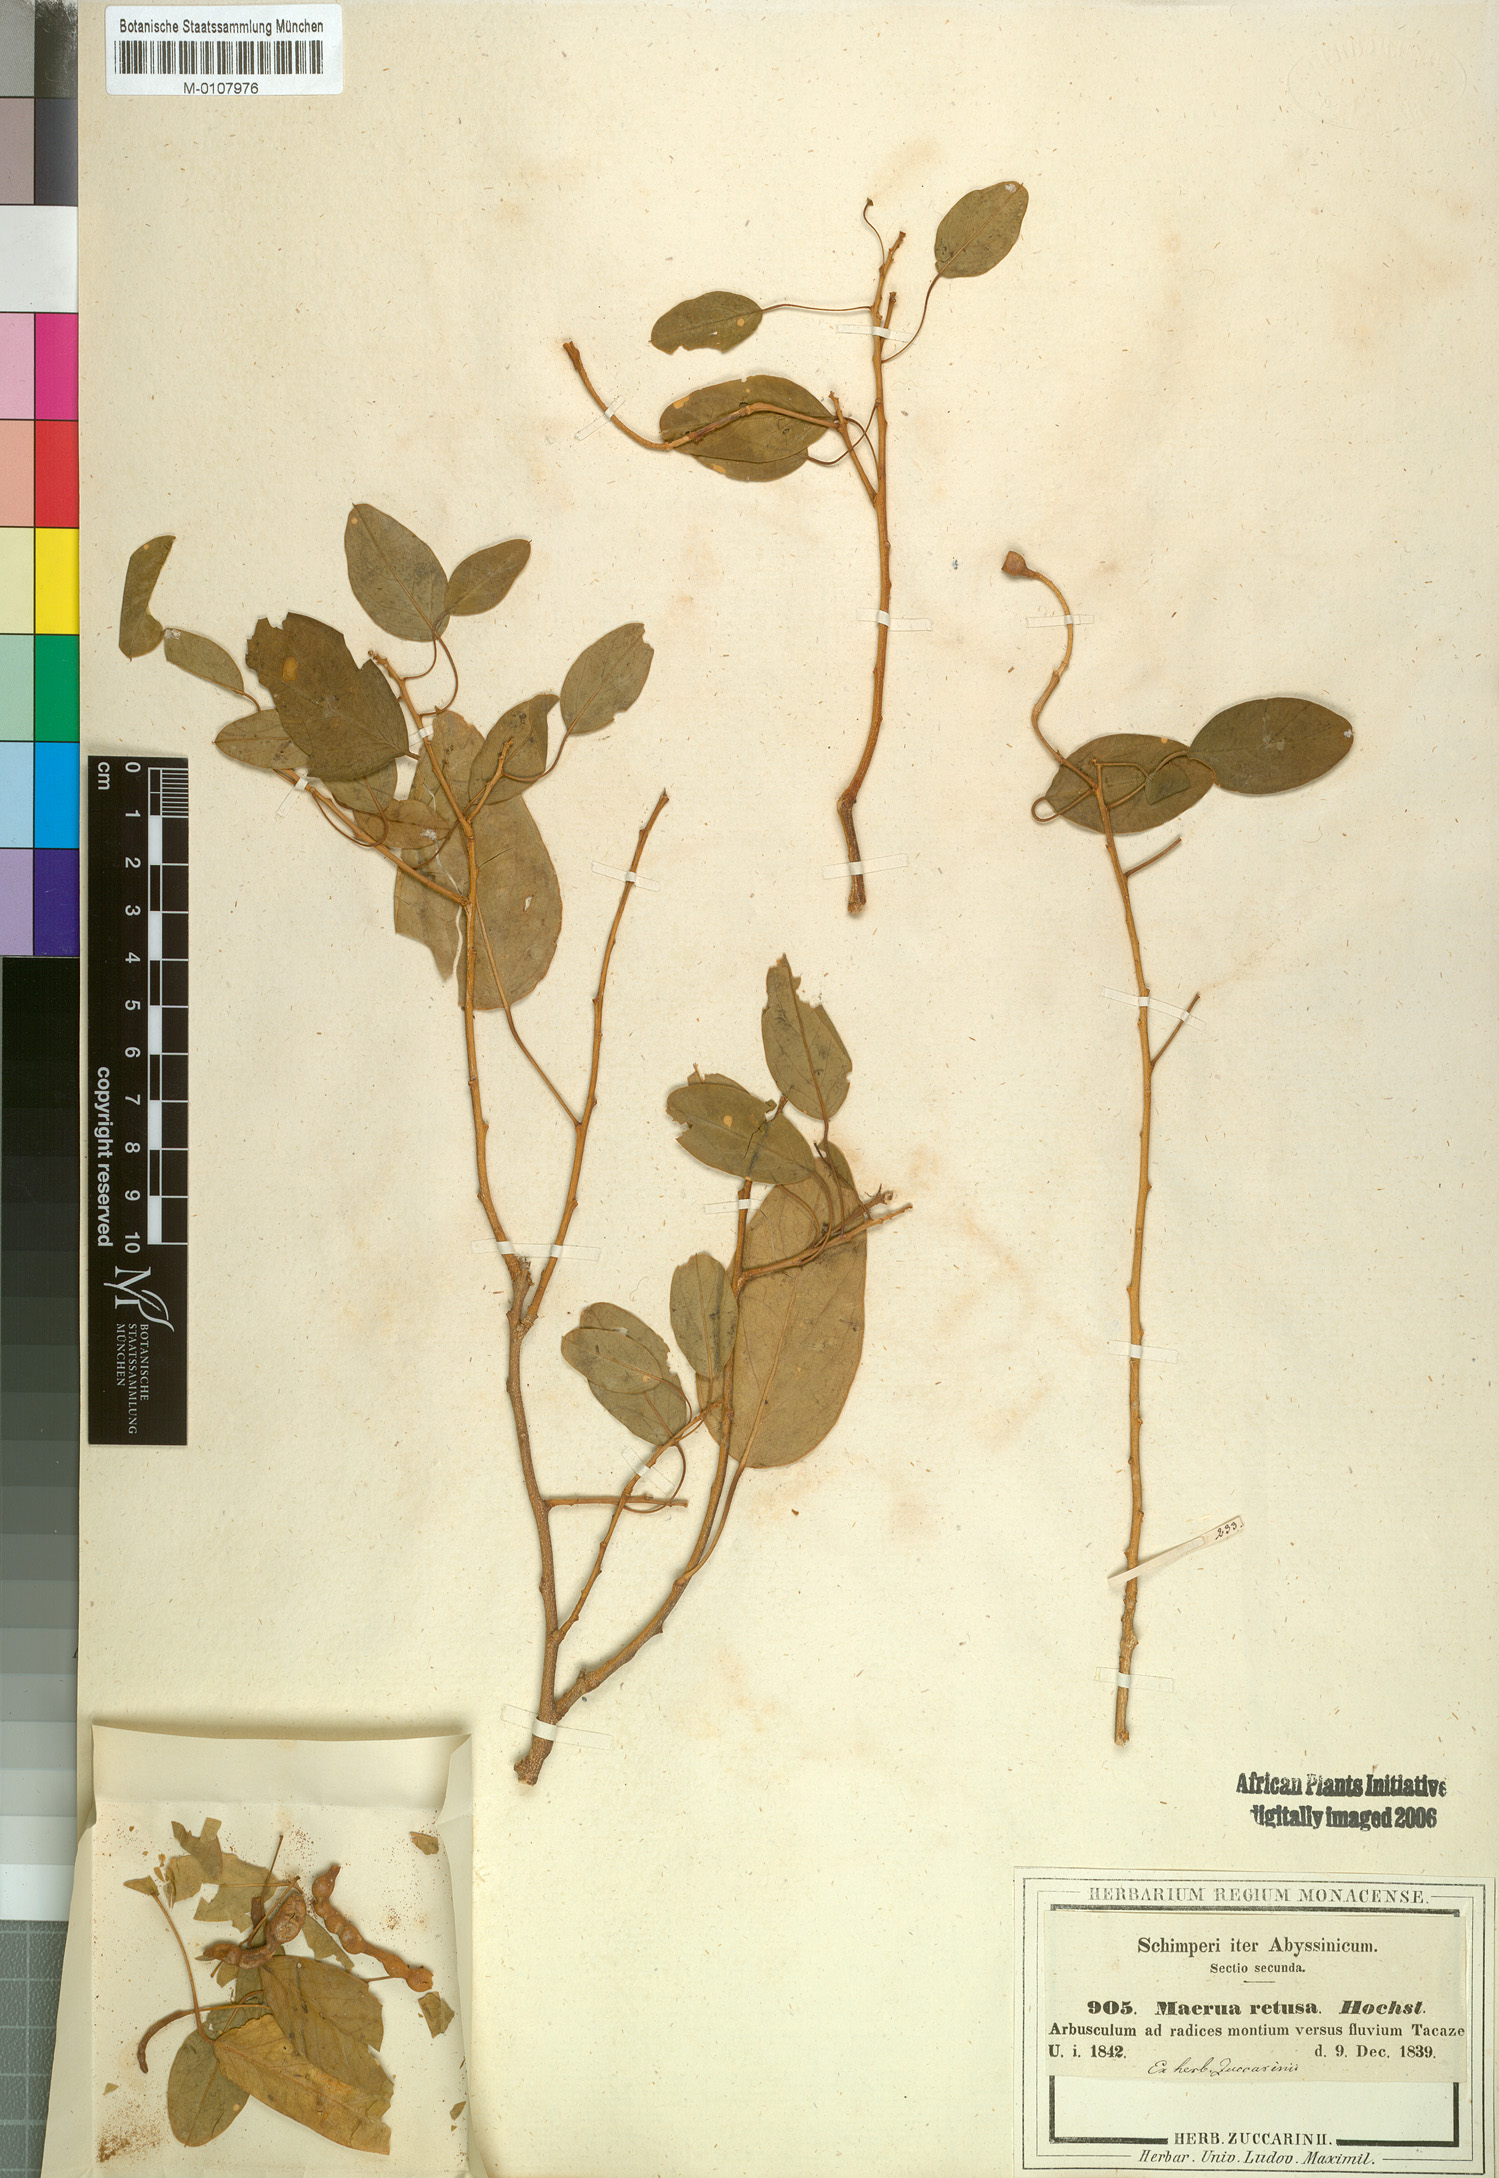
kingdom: Plantae
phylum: Tracheophyta
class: Magnoliopsida
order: Brassicales
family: Capparaceae
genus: Maerua
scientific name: Maerua angolensis
